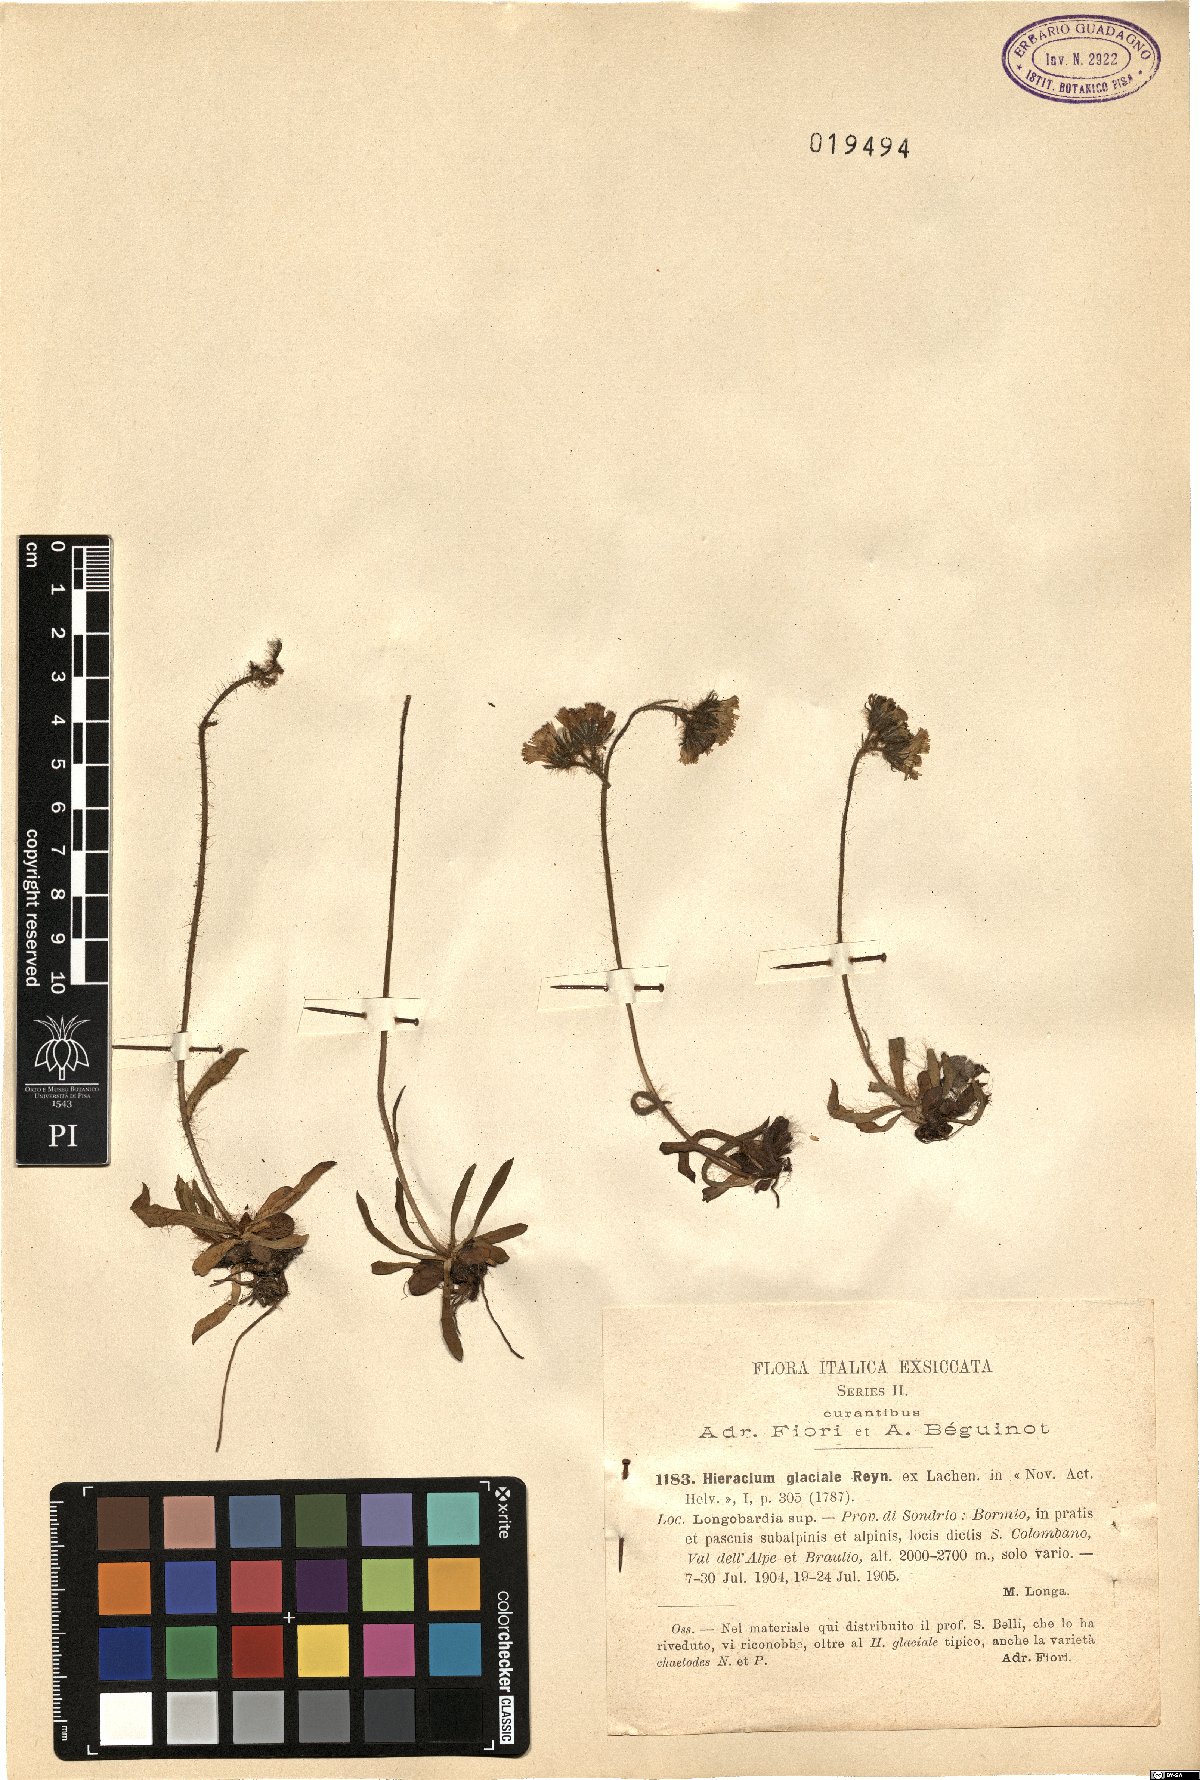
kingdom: Plantae
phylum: Tracheophyta
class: Magnoliopsida
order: Asterales
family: Asteraceae
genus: Pilosella
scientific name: Pilosella glacialis
